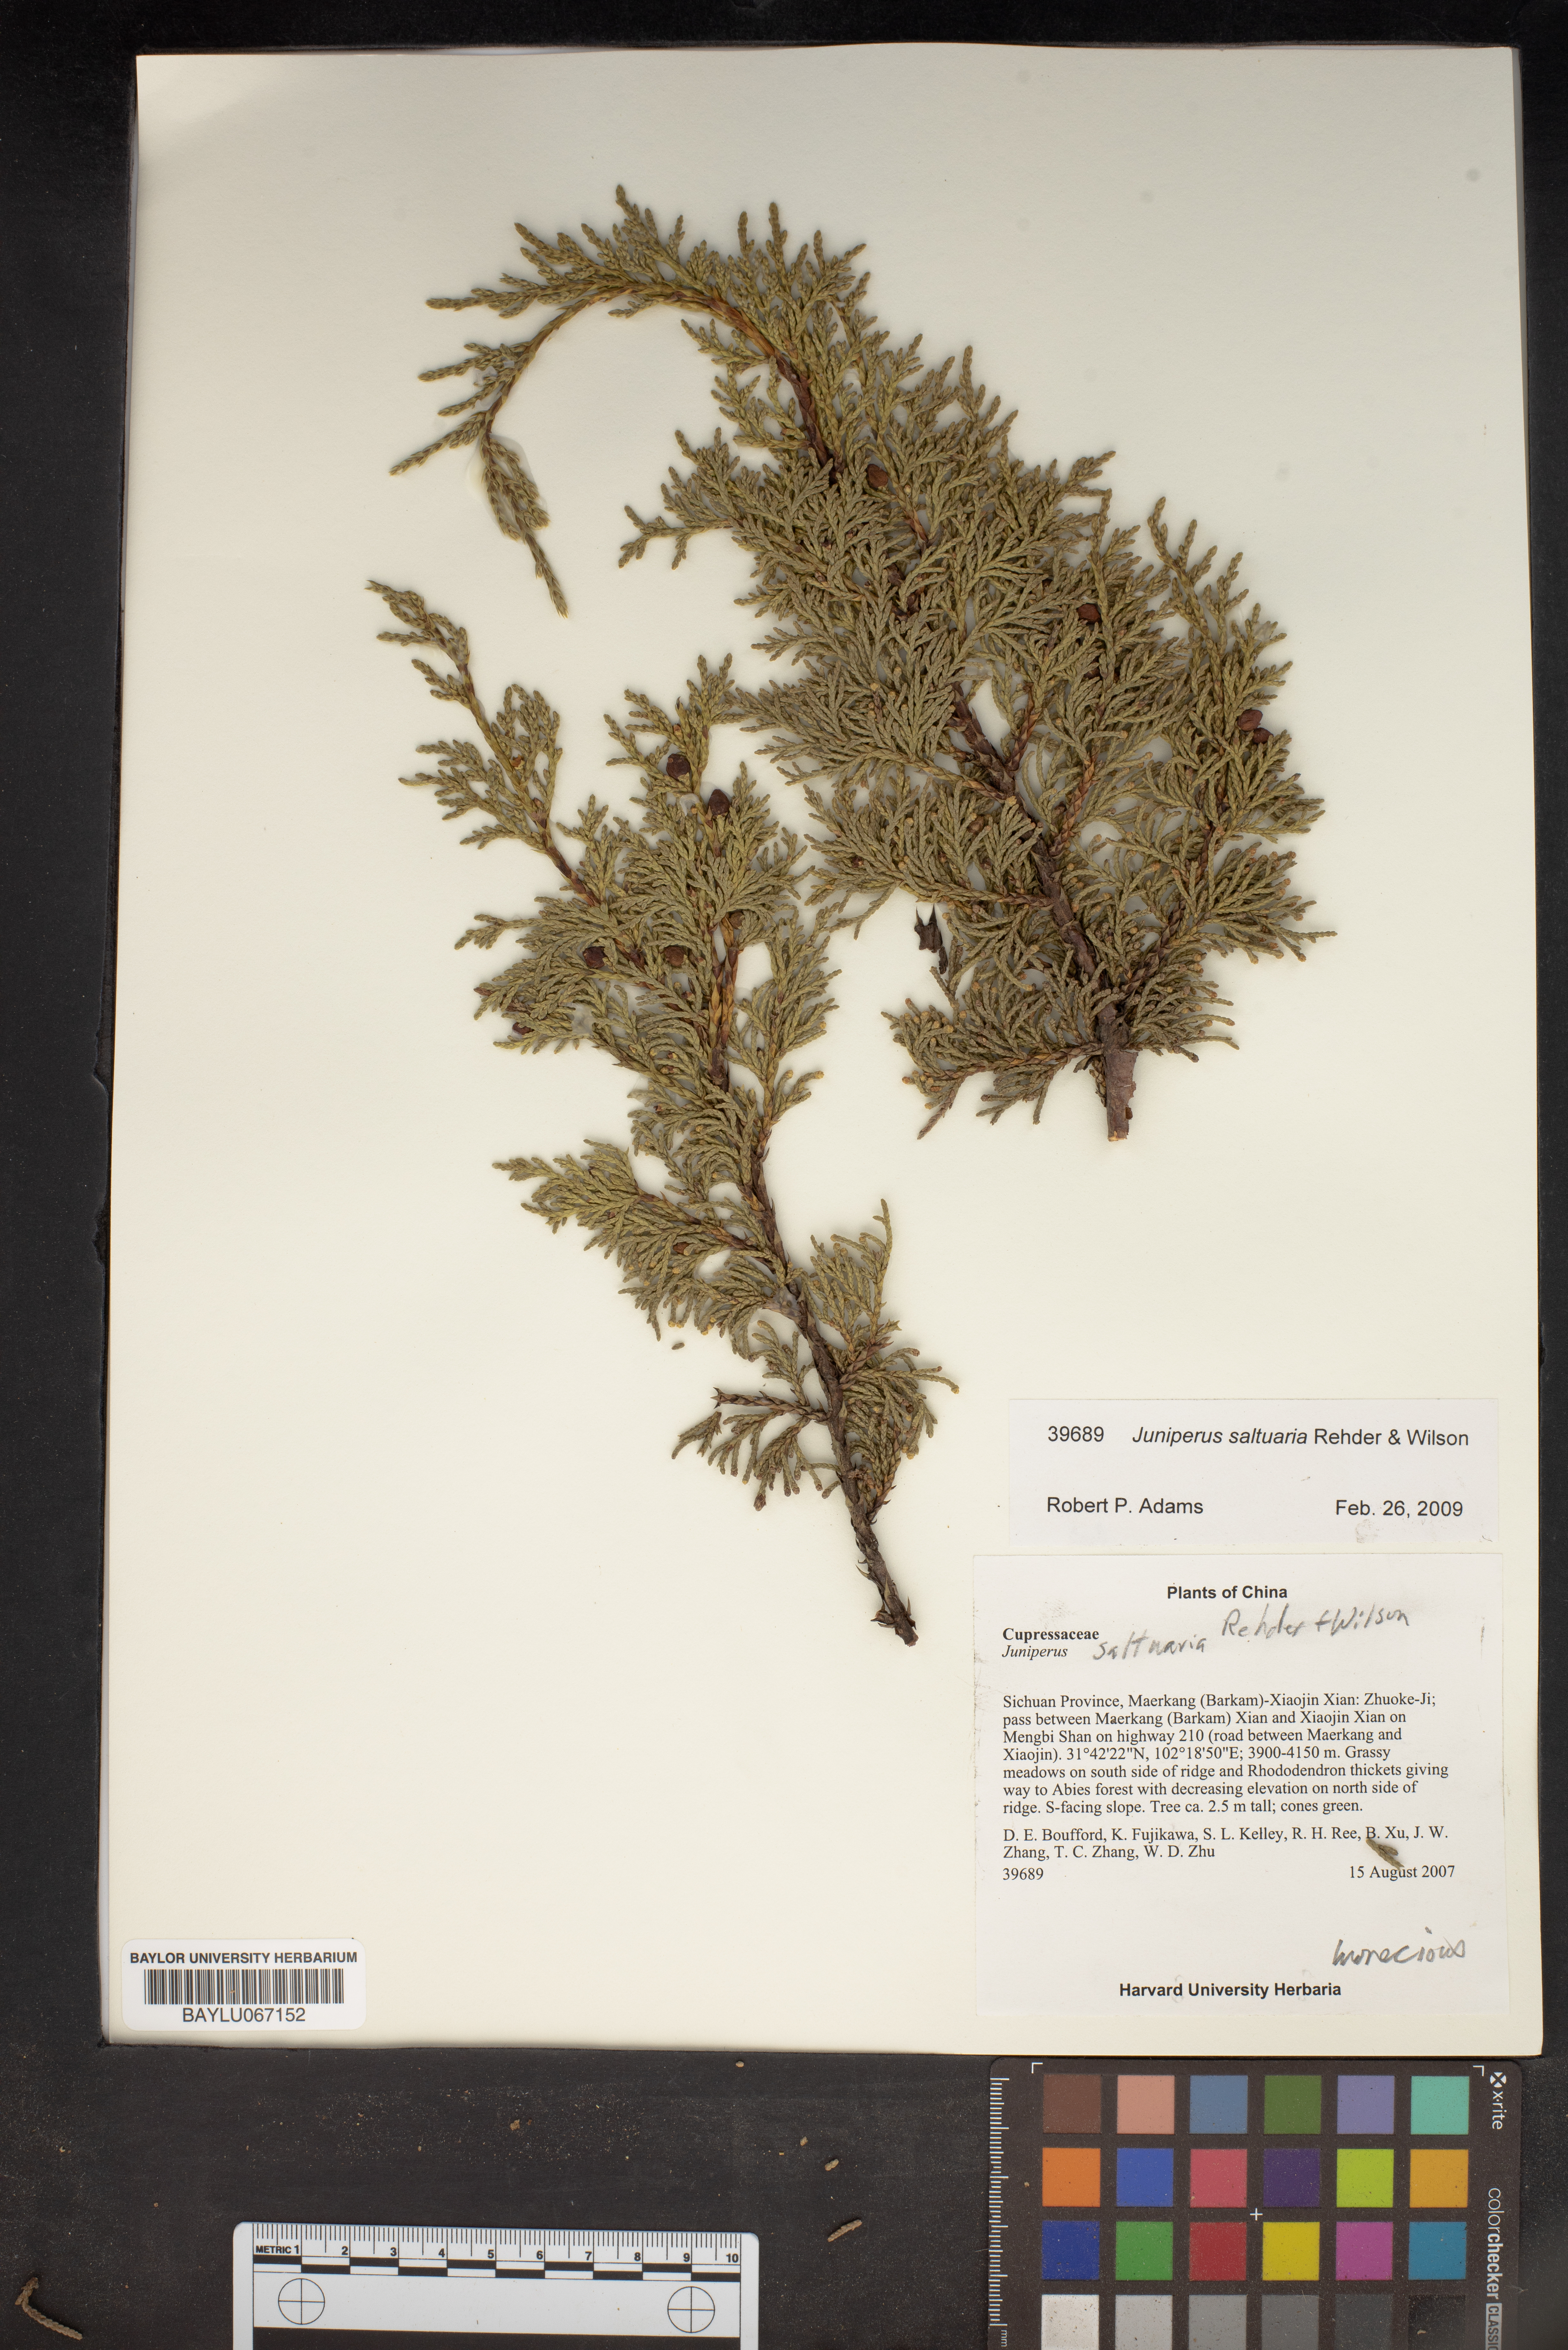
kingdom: Plantae
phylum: Tracheophyta
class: Pinopsida
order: Pinales
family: Cupressaceae
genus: Juniperus
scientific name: Juniperus saltuaria
